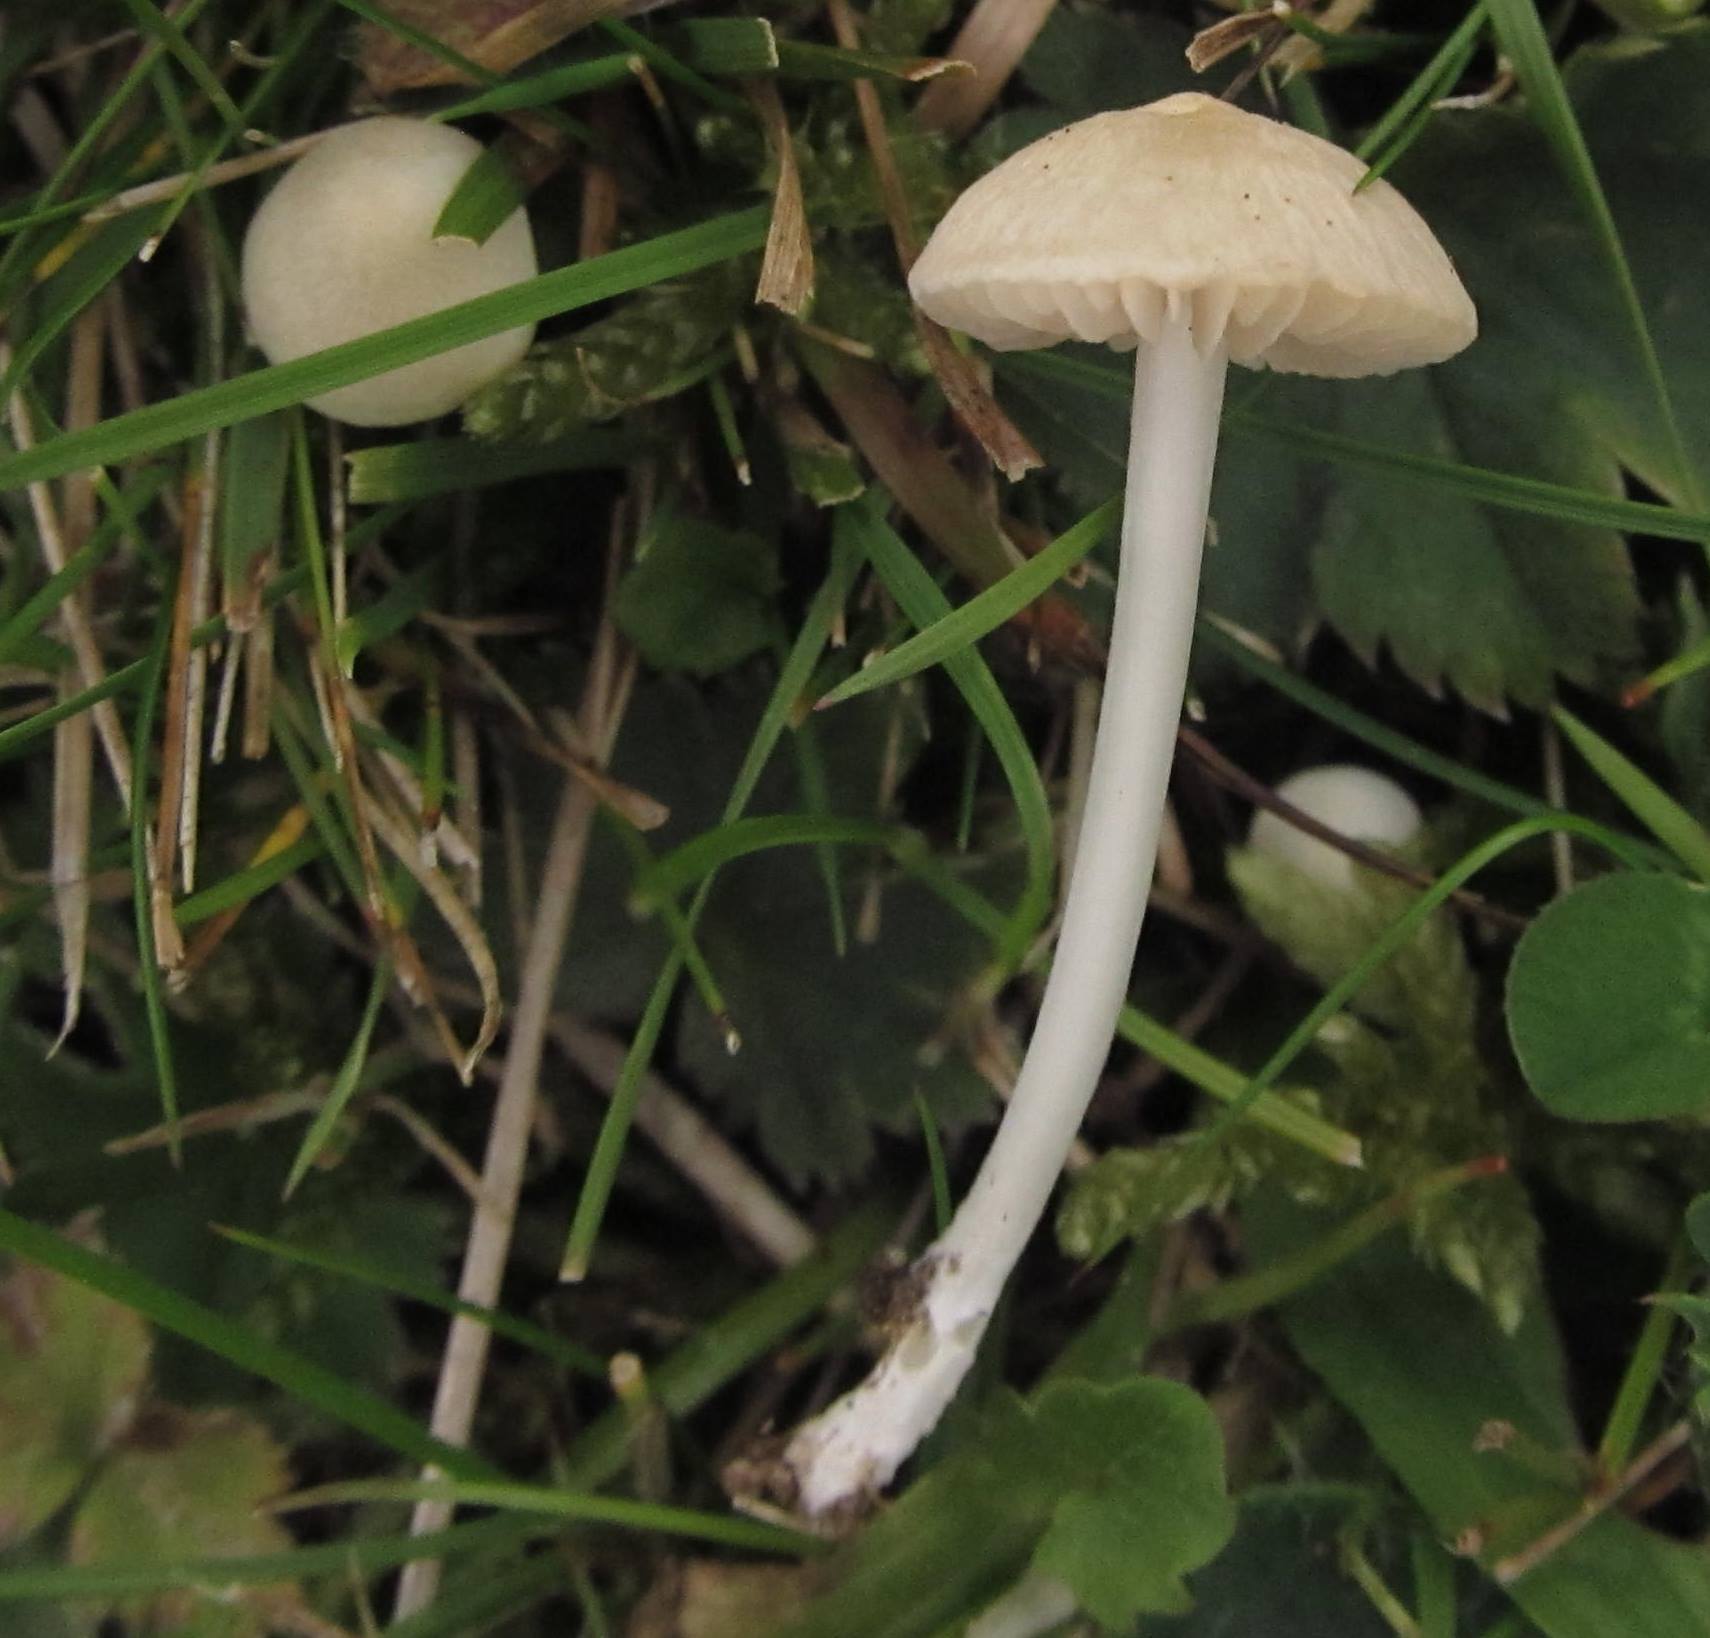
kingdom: Fungi
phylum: Basidiomycota
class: Agaricomycetes
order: Agaricales
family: Entolomataceae
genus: Entoloma
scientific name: Entoloma sericellum
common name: silkehvid rødblad
